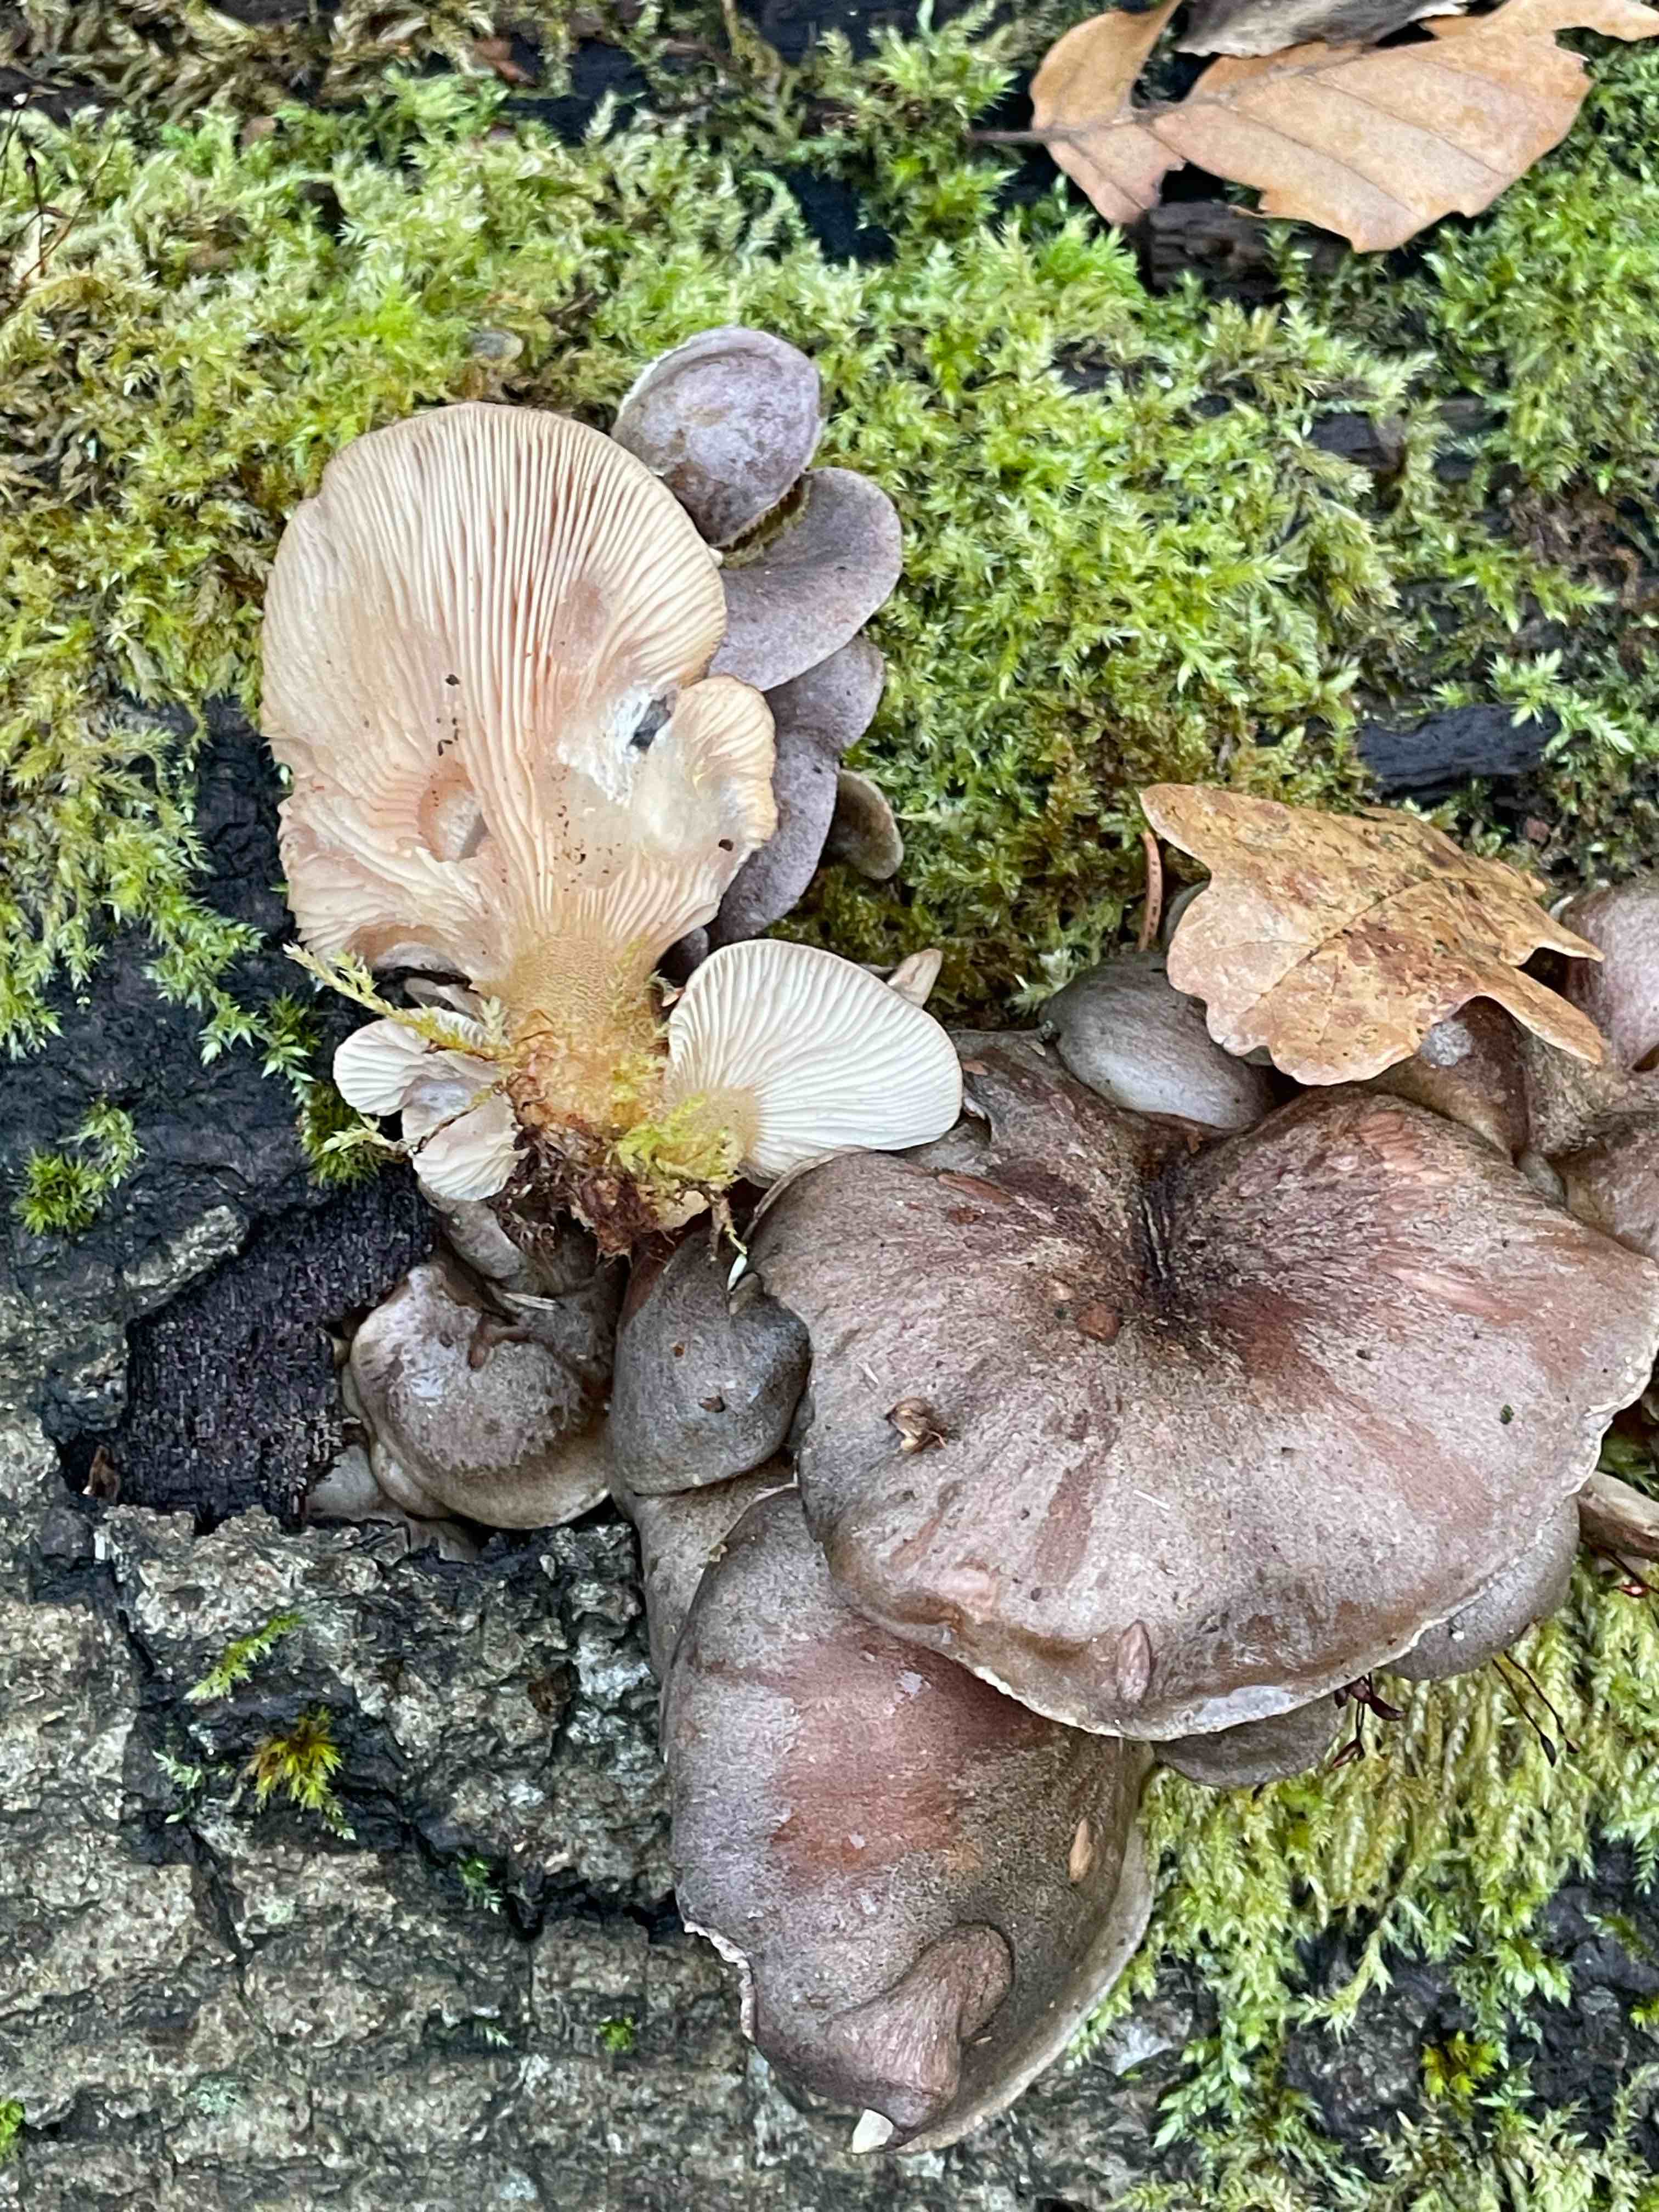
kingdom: Fungi
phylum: Basidiomycota
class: Agaricomycetes
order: Agaricales
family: Sarcomyxaceae
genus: Sarcomyxa
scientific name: Sarcomyxa serotina
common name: gummihat
